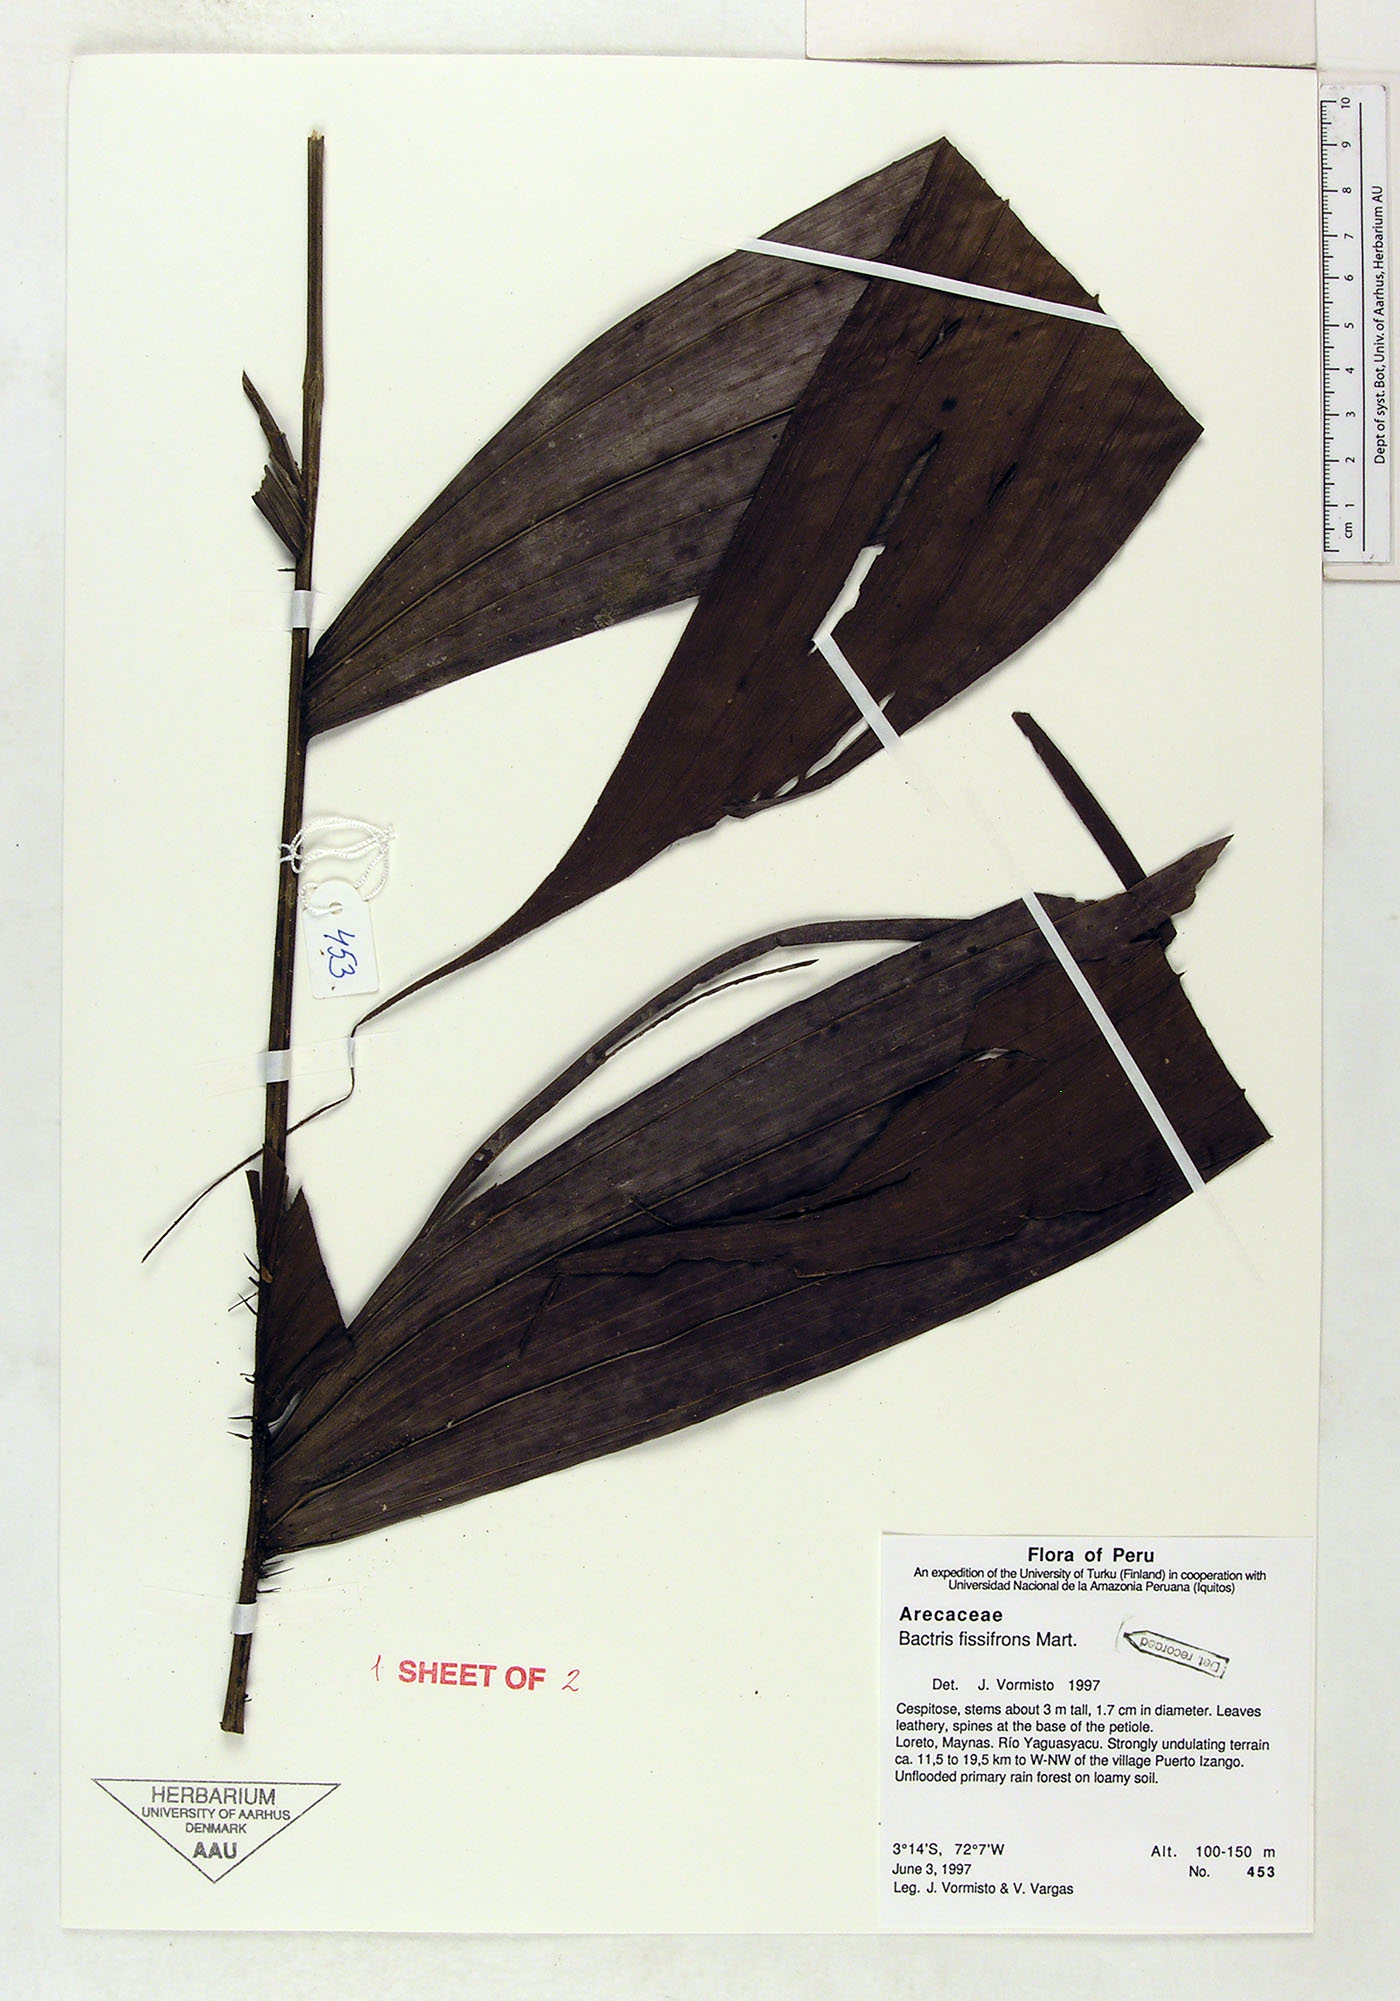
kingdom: Plantae
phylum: Tracheophyta
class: Liliopsida
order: Arecales
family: Arecaceae
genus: Bactris
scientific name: Bactris fissifrons
